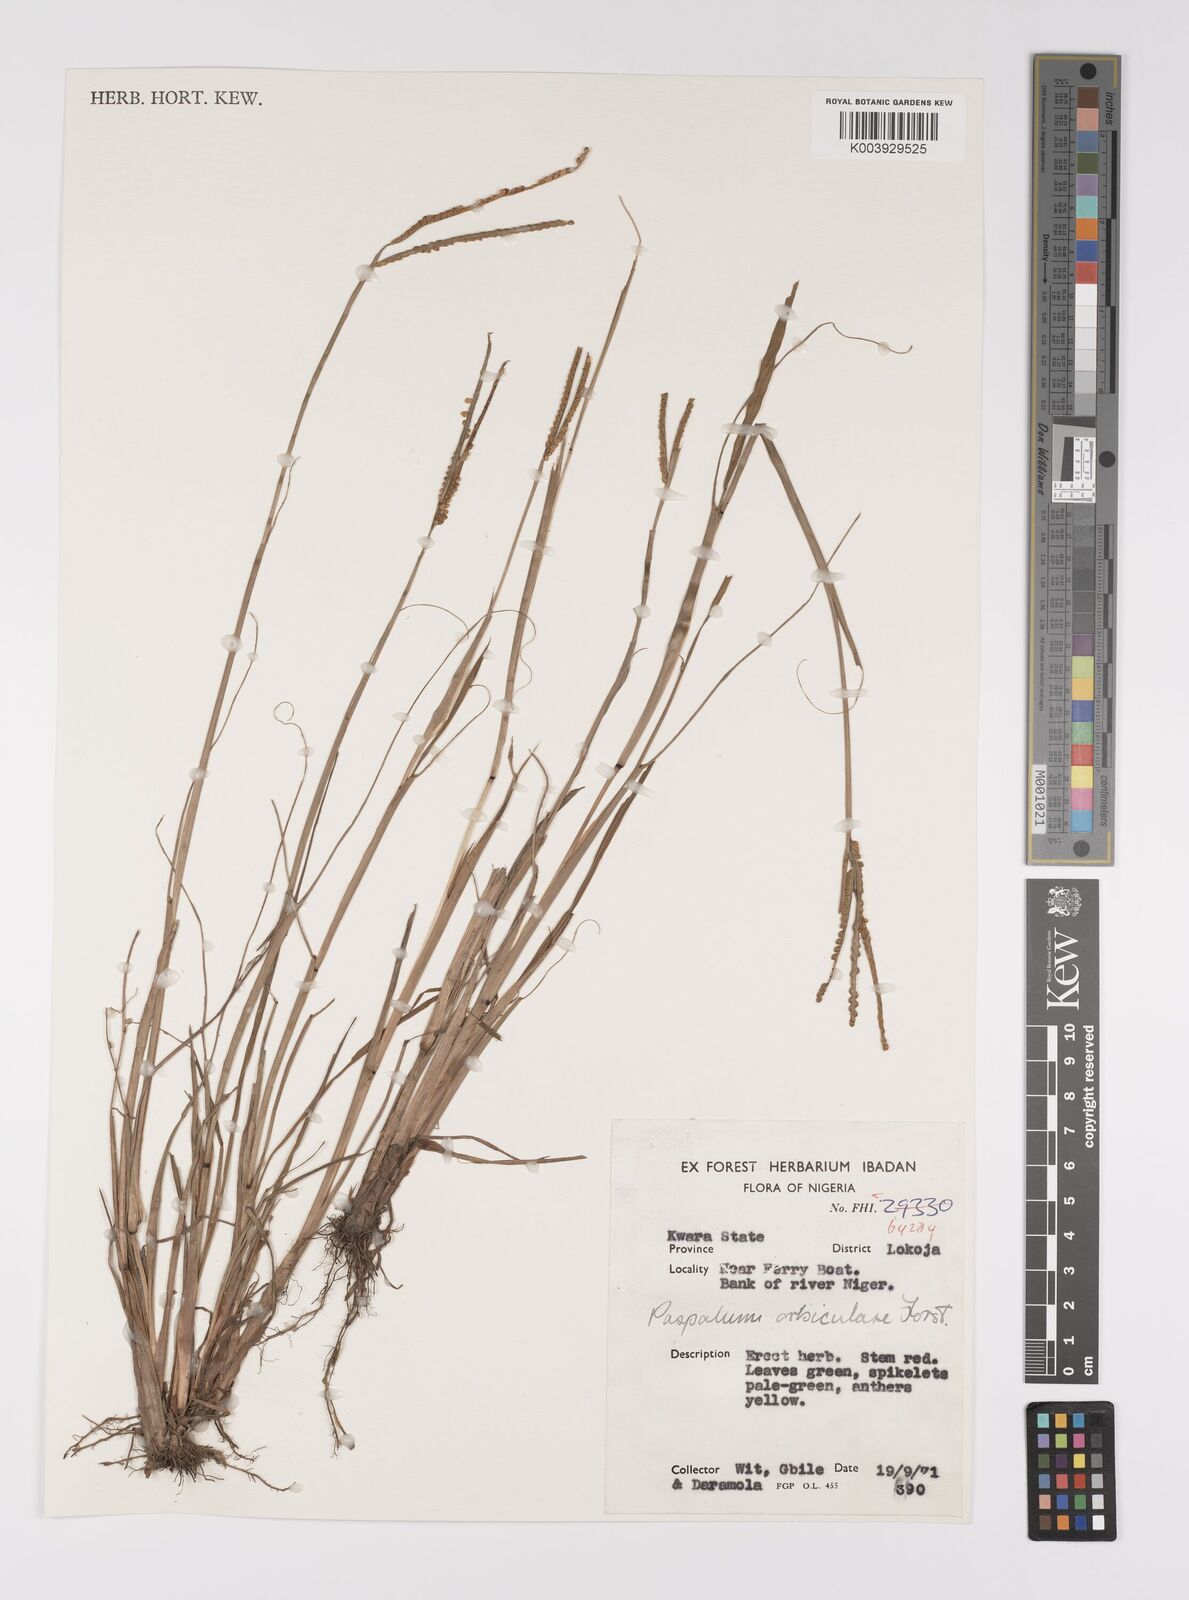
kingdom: Plantae
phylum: Tracheophyta
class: Liliopsida
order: Poales
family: Poaceae
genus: Paspalum
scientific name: Paspalum scrobiculatum
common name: Kodo millet
